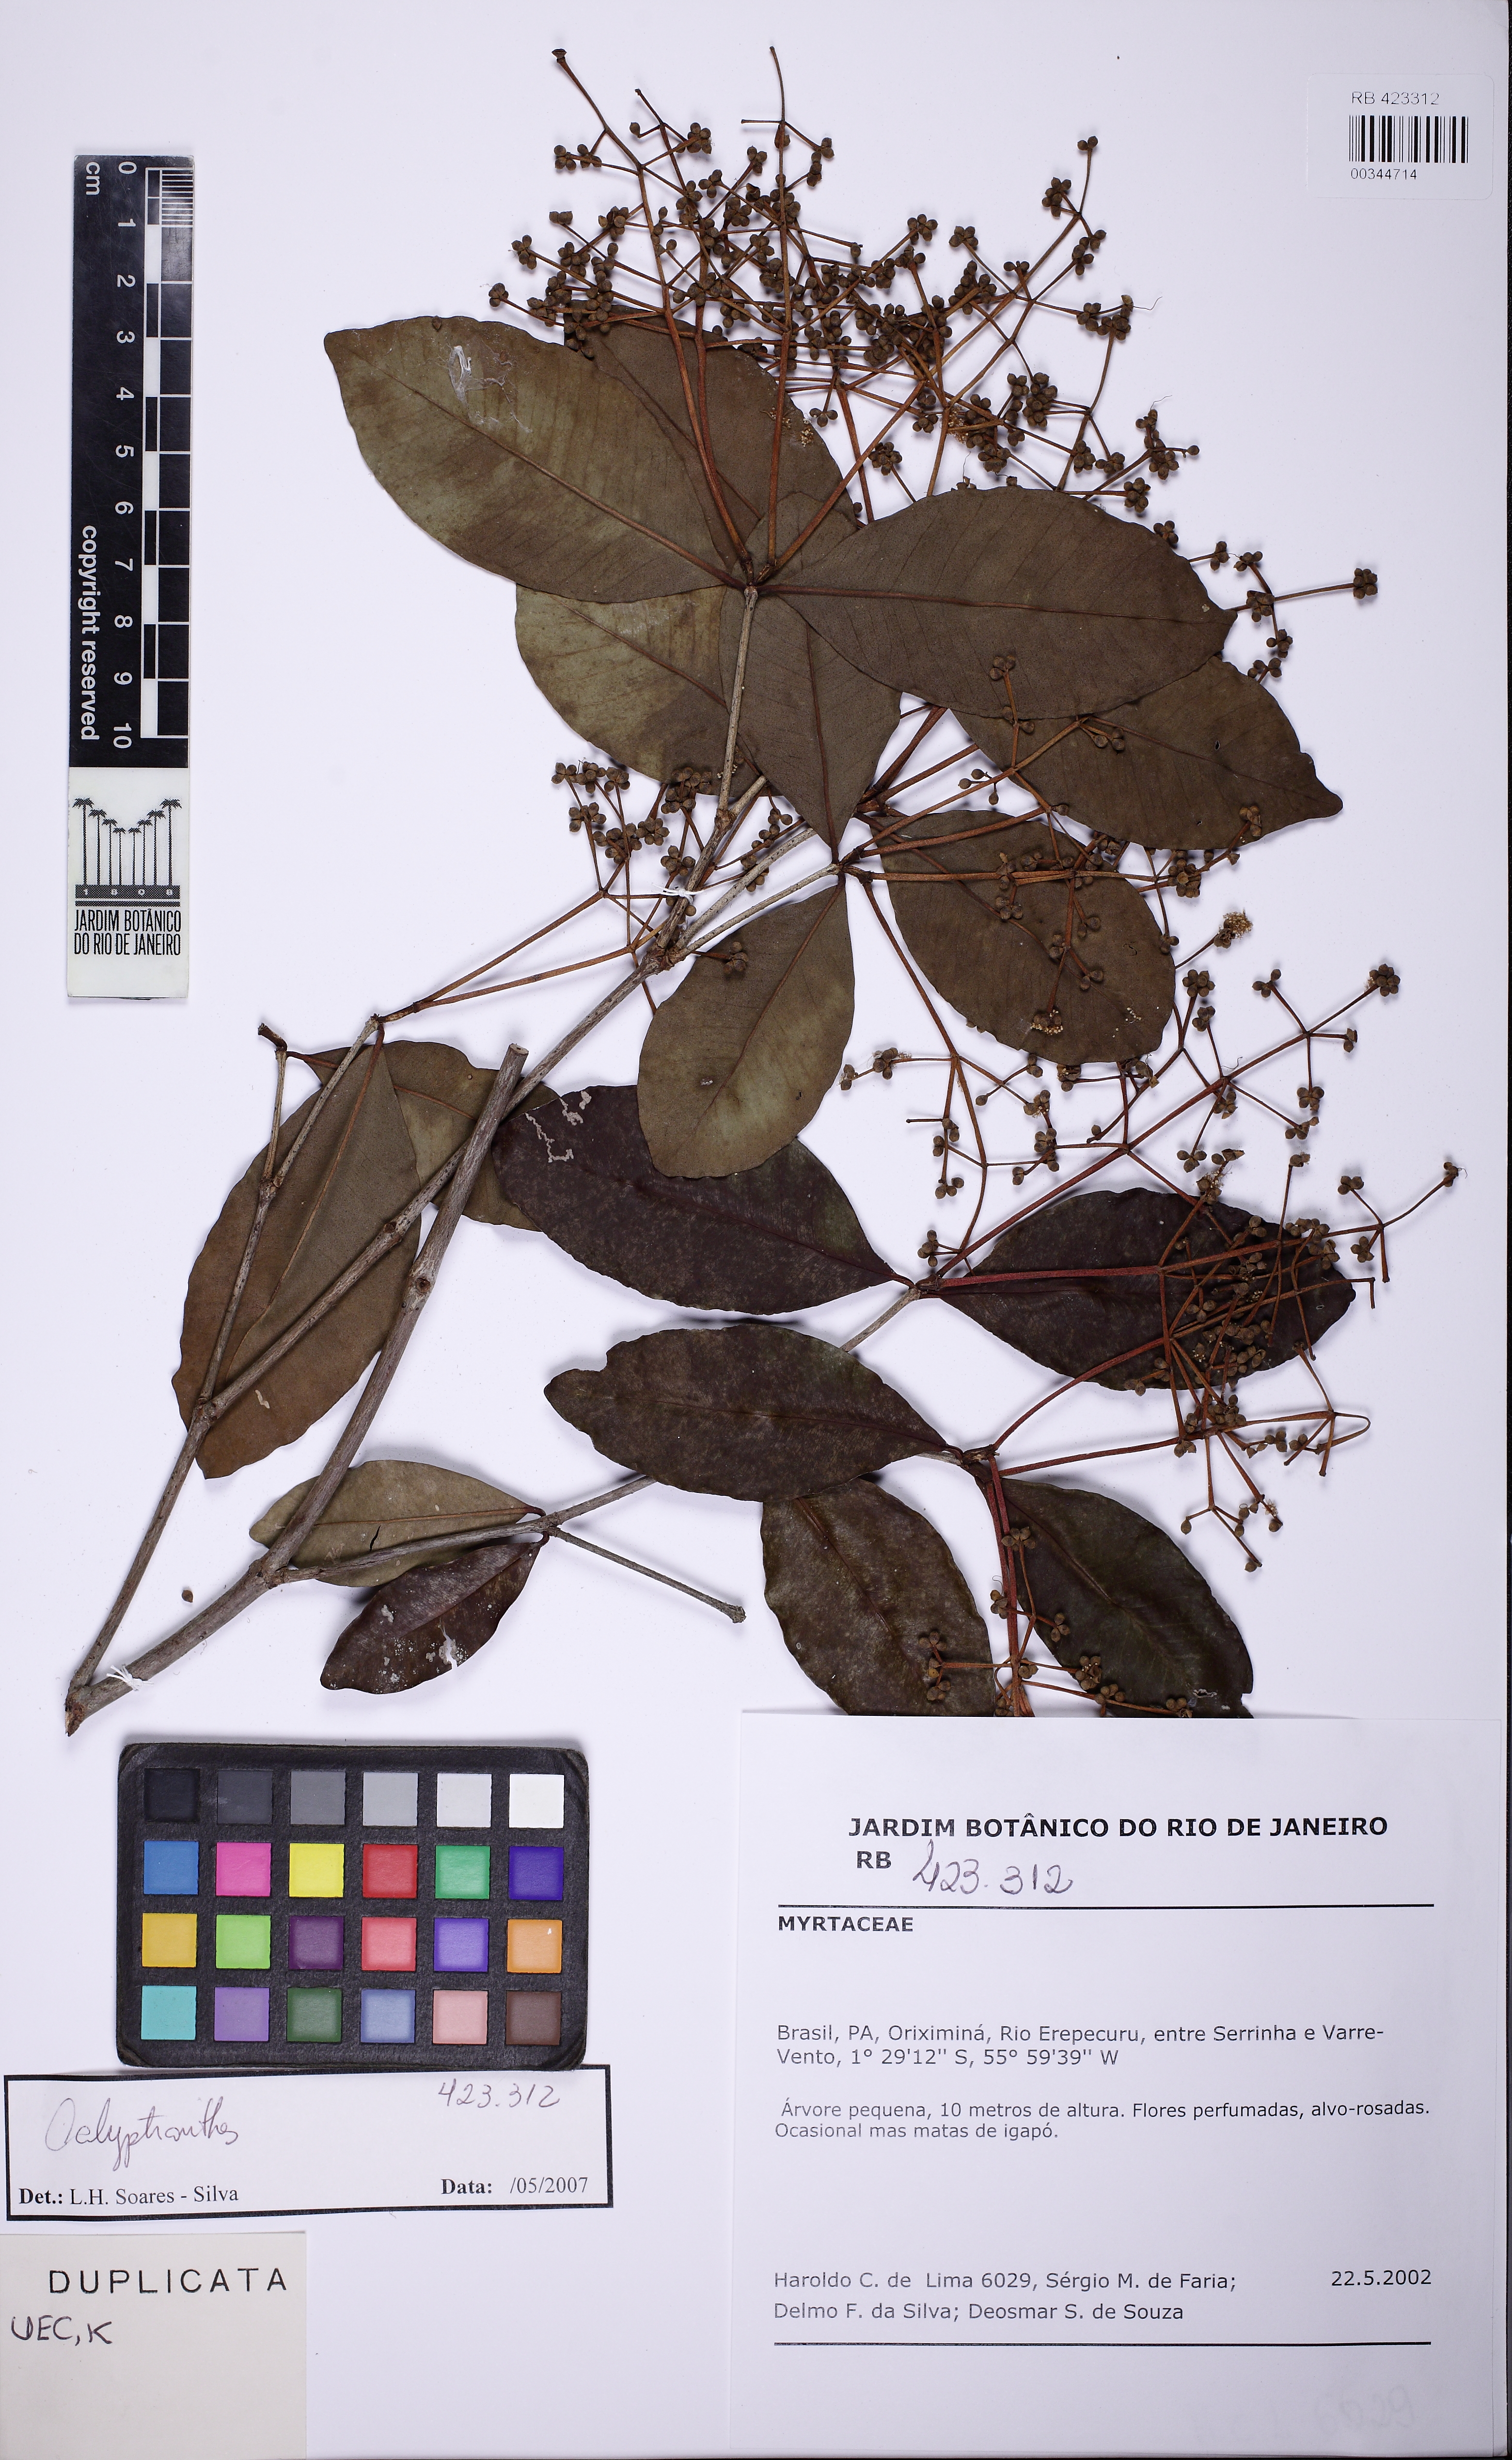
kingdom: Plantae
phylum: Tracheophyta
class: Magnoliopsida
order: Myrtales
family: Myrtaceae
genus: Myrcia
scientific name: Myrcia ruiziana
